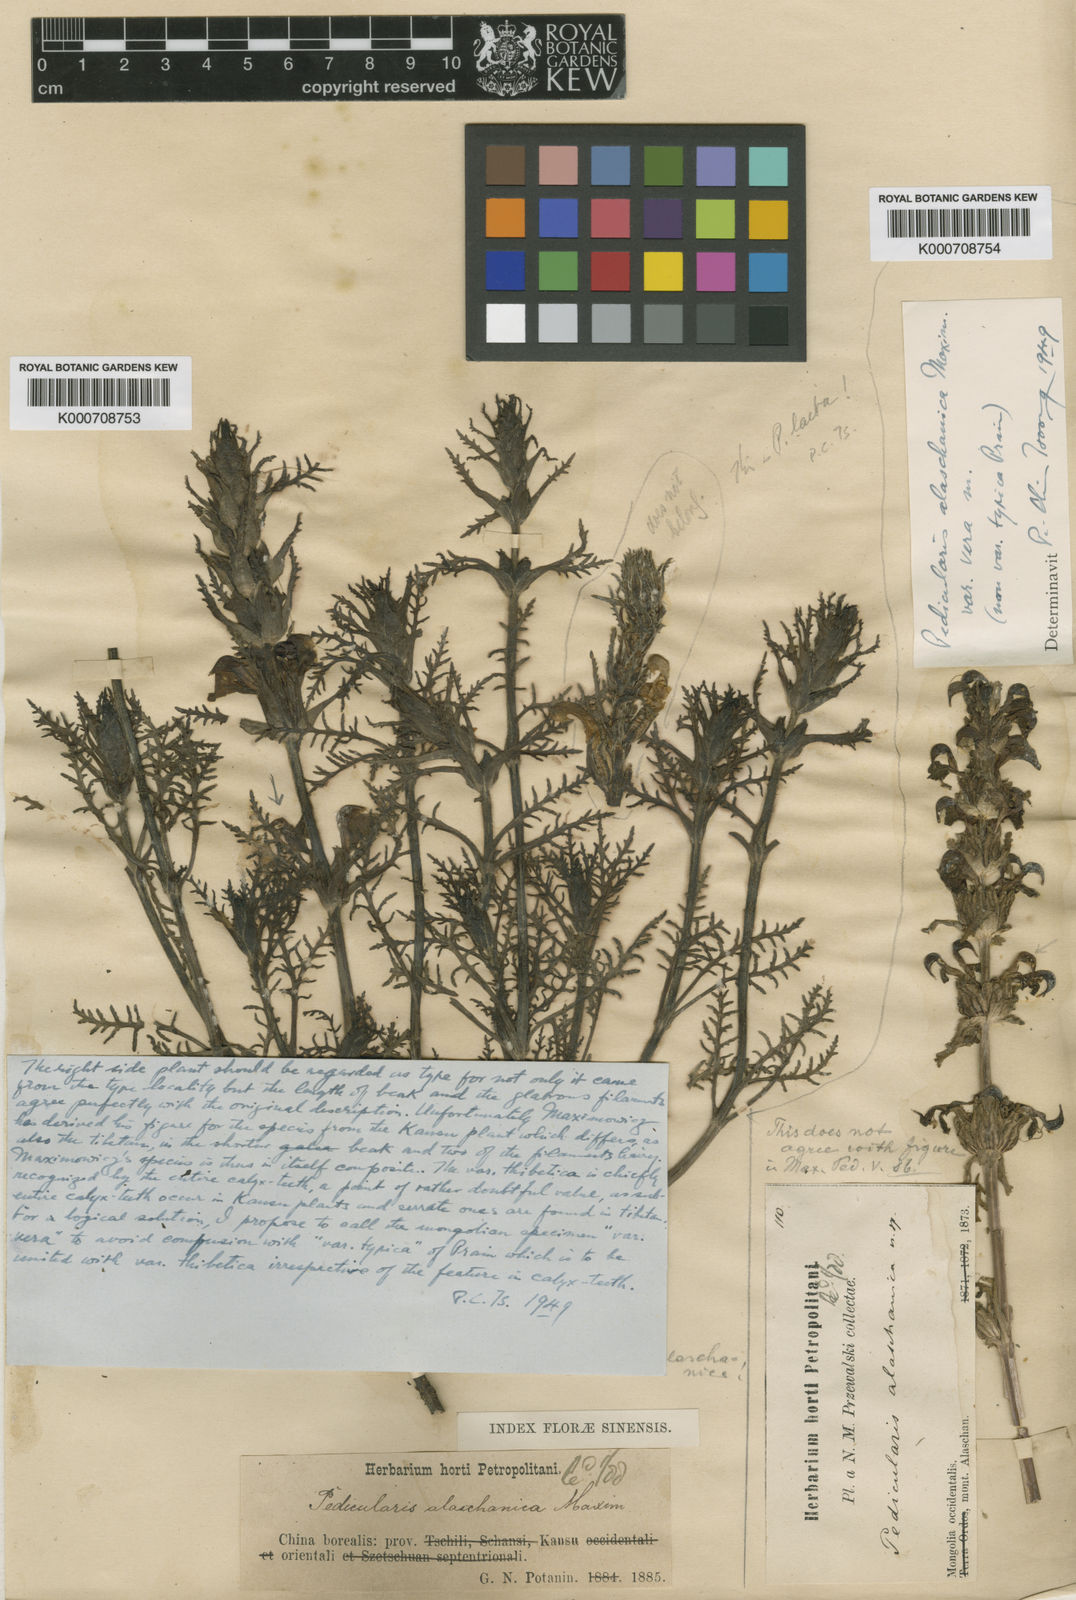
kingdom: Plantae
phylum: Tracheophyta
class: Magnoliopsida
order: Lamiales
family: Orobanchaceae
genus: Pedicularis
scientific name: Pedicularis alaschanica
